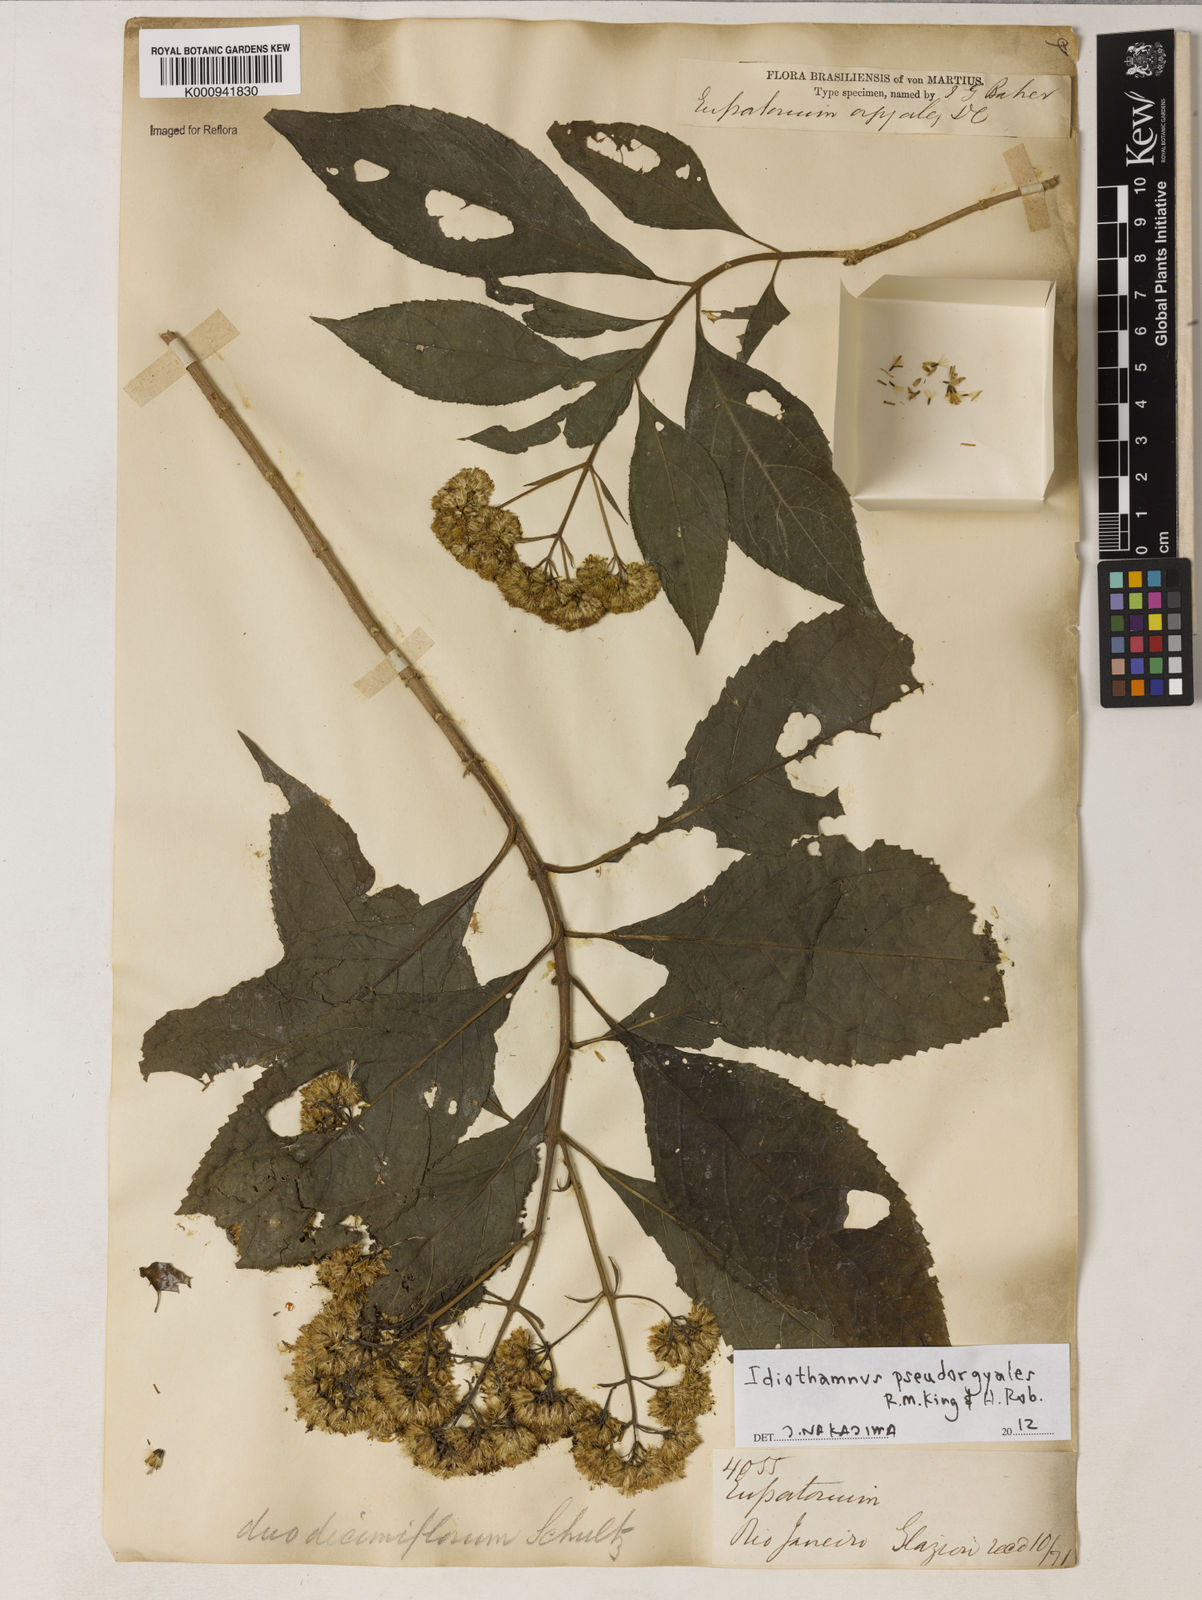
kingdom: Plantae
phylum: Tracheophyta
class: Magnoliopsida
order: Asterales
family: Asteraceae
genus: Idiothamnus
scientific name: Idiothamnus
